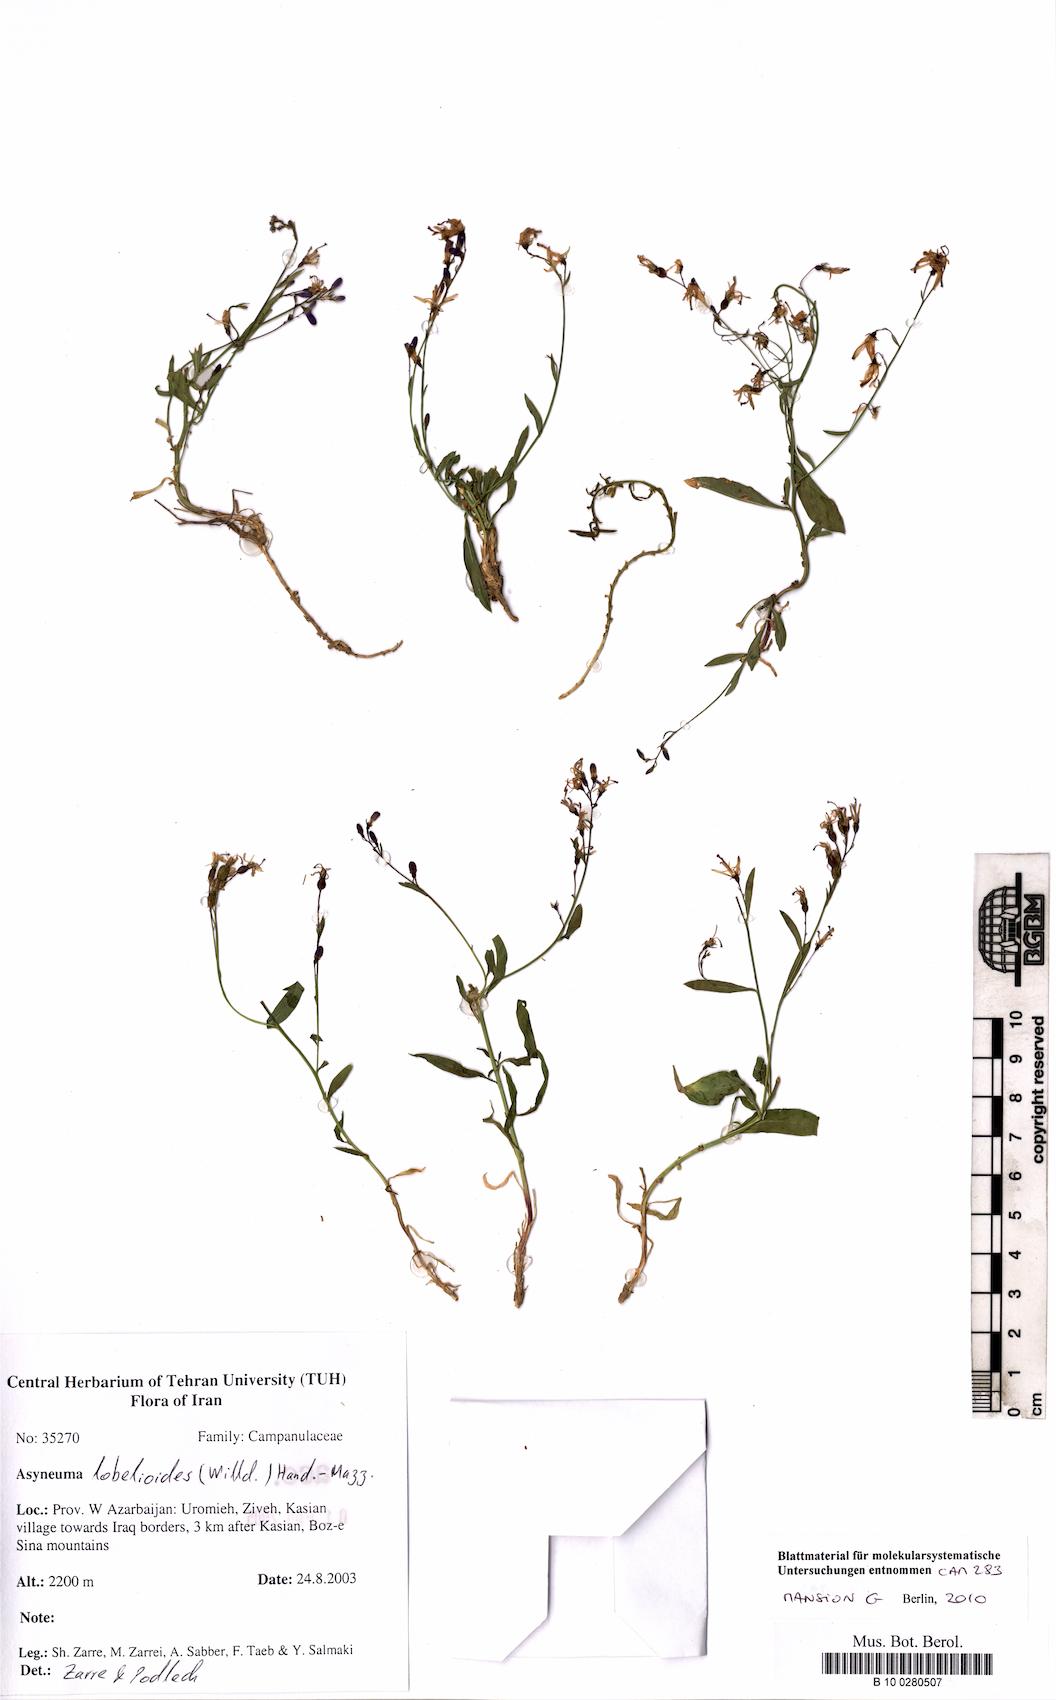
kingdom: Plantae
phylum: Tracheophyta
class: Magnoliopsida
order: Asterales
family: Campanulaceae
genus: Asyneuma
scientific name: Asyneuma lobelioides
